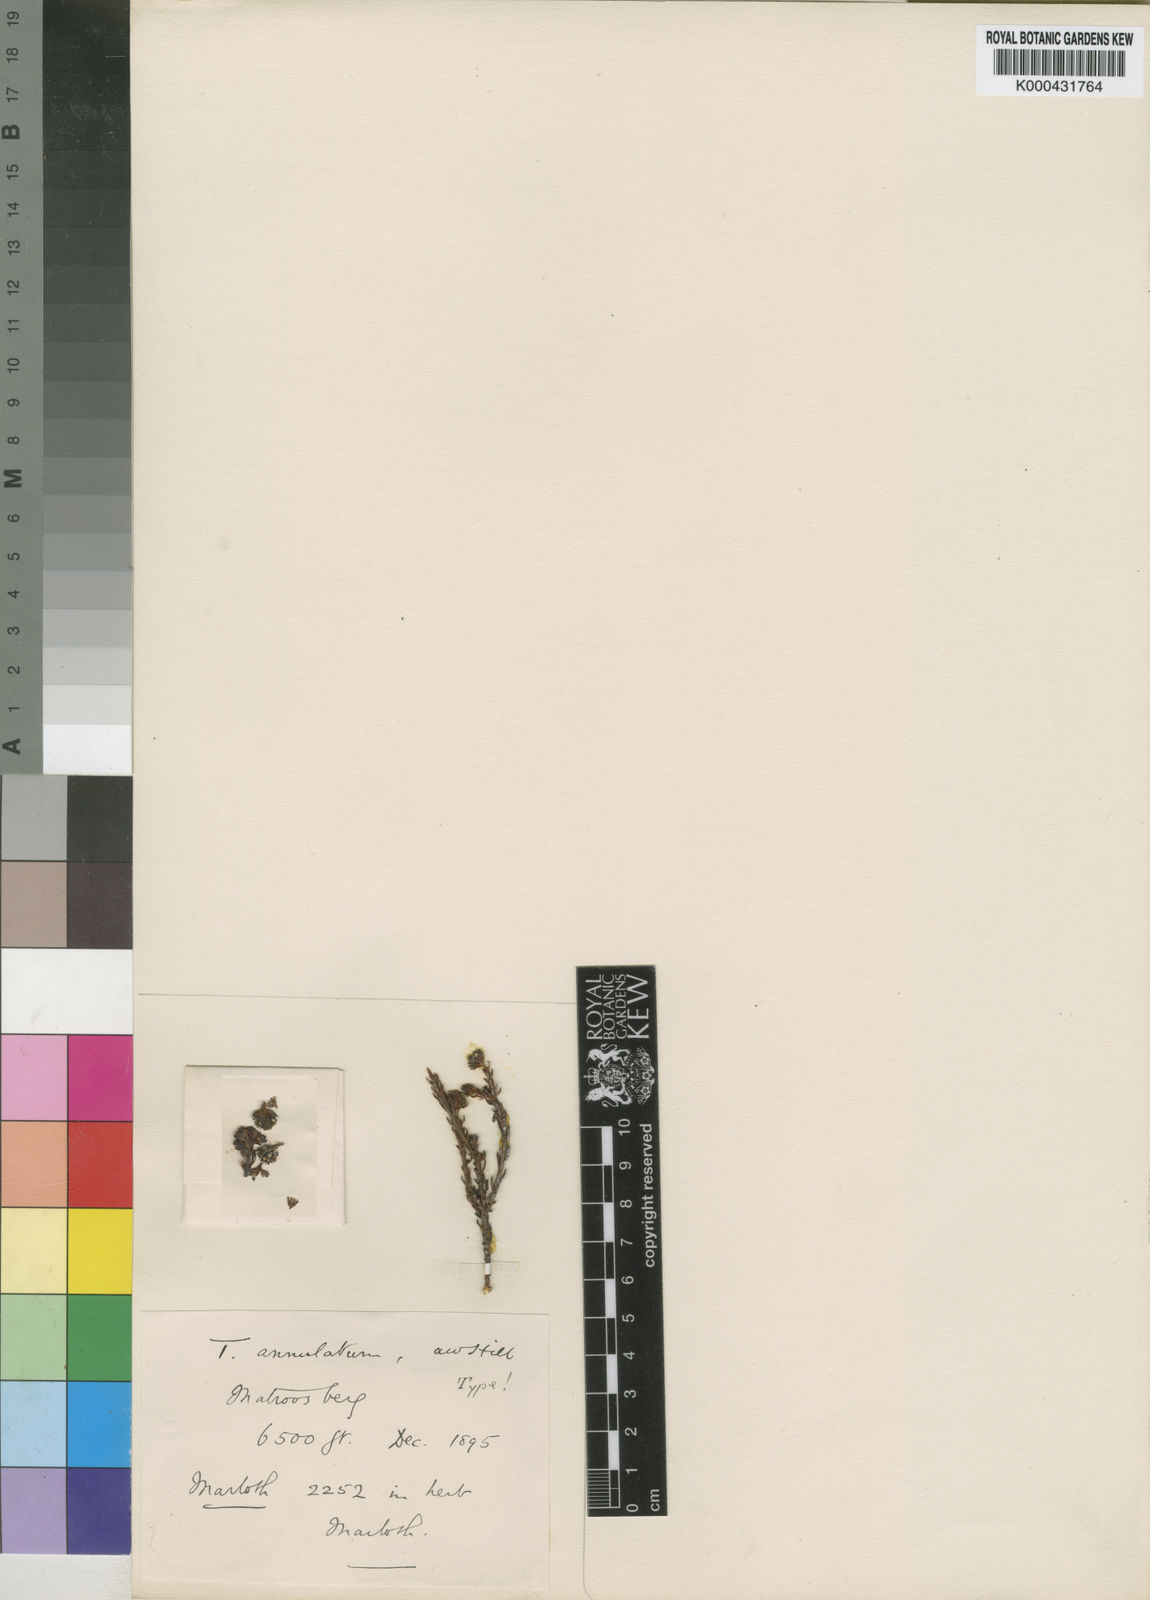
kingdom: Plantae
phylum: Tracheophyta
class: Magnoliopsida
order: Santalales
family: Thesiaceae
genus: Thesium
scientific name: Thesium annulatum
